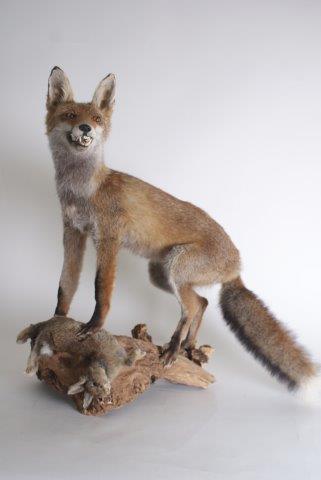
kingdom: Animalia
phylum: Chordata
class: Mammalia
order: Carnivora
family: Canidae
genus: Vulpes
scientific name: Vulpes vulpes
